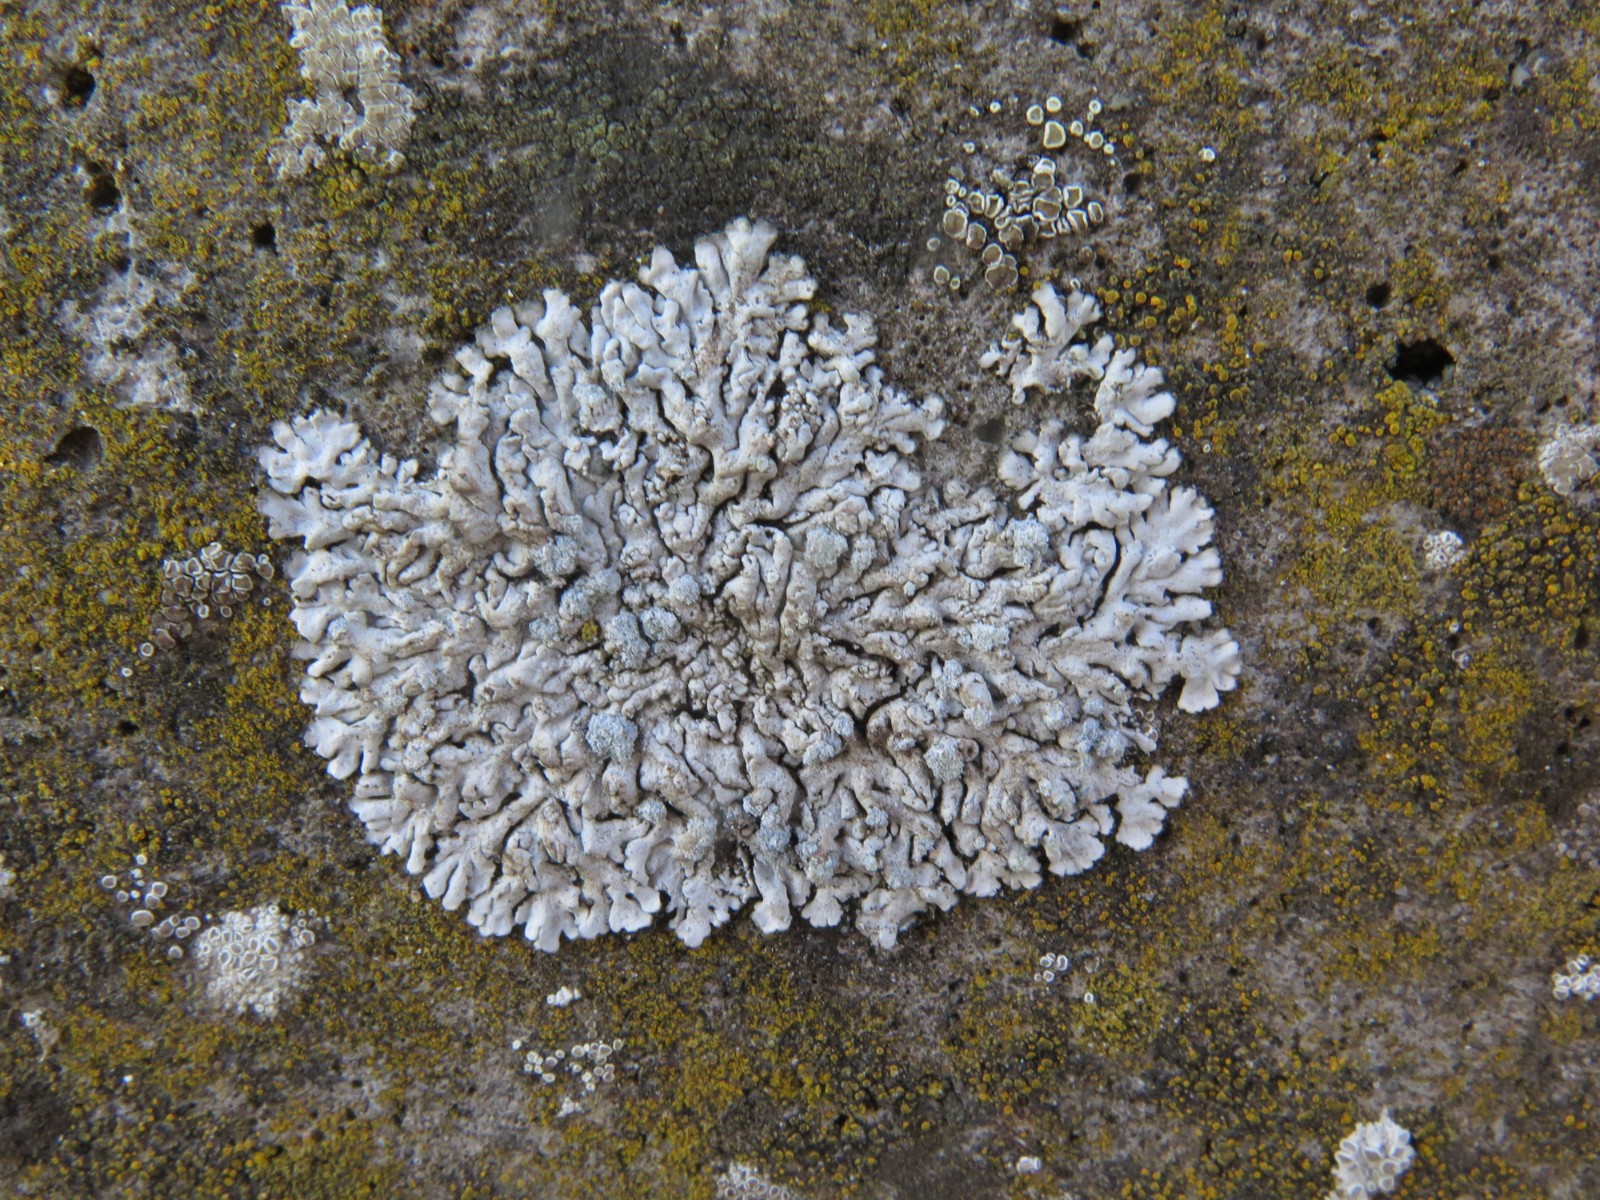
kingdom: Fungi
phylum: Ascomycota
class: Lecanoromycetes
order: Caliciales
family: Physciaceae
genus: Physcia
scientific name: Physcia caesia
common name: blågrå rosetlav
